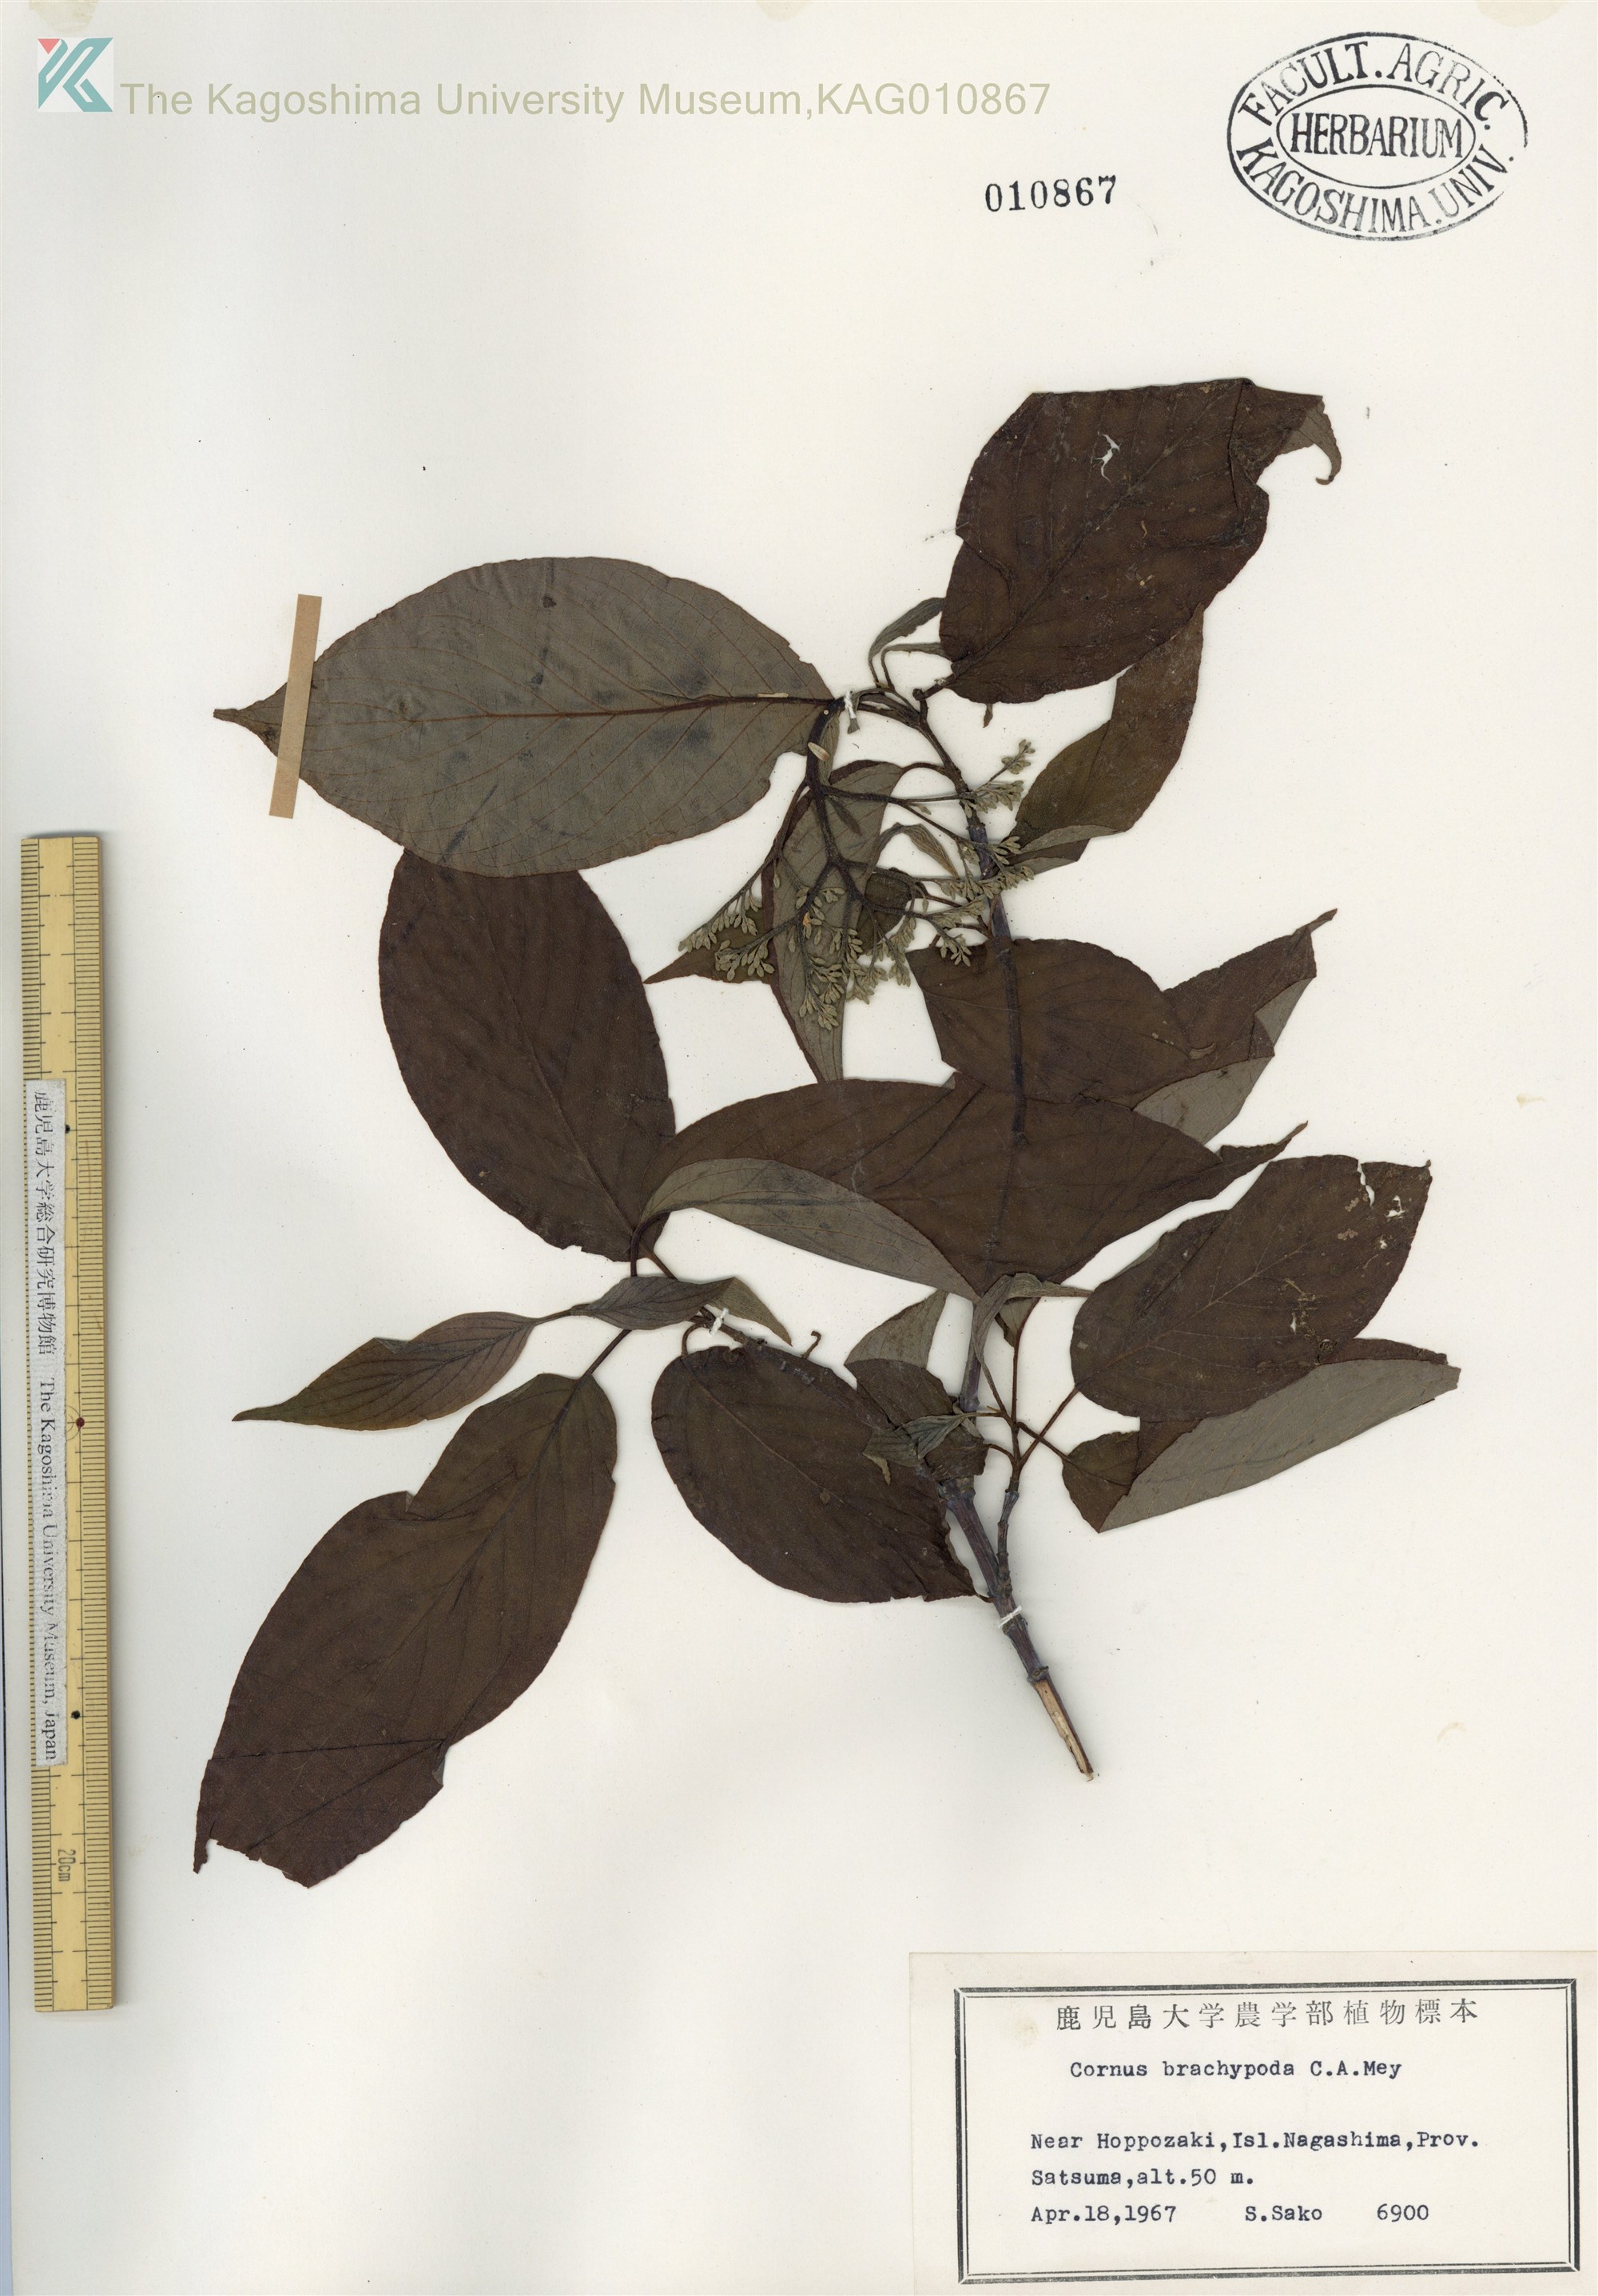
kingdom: Plantae
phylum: Tracheophyta
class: Magnoliopsida
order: Cornales
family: Cornaceae
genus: Cornus
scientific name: Cornus macrophylla
